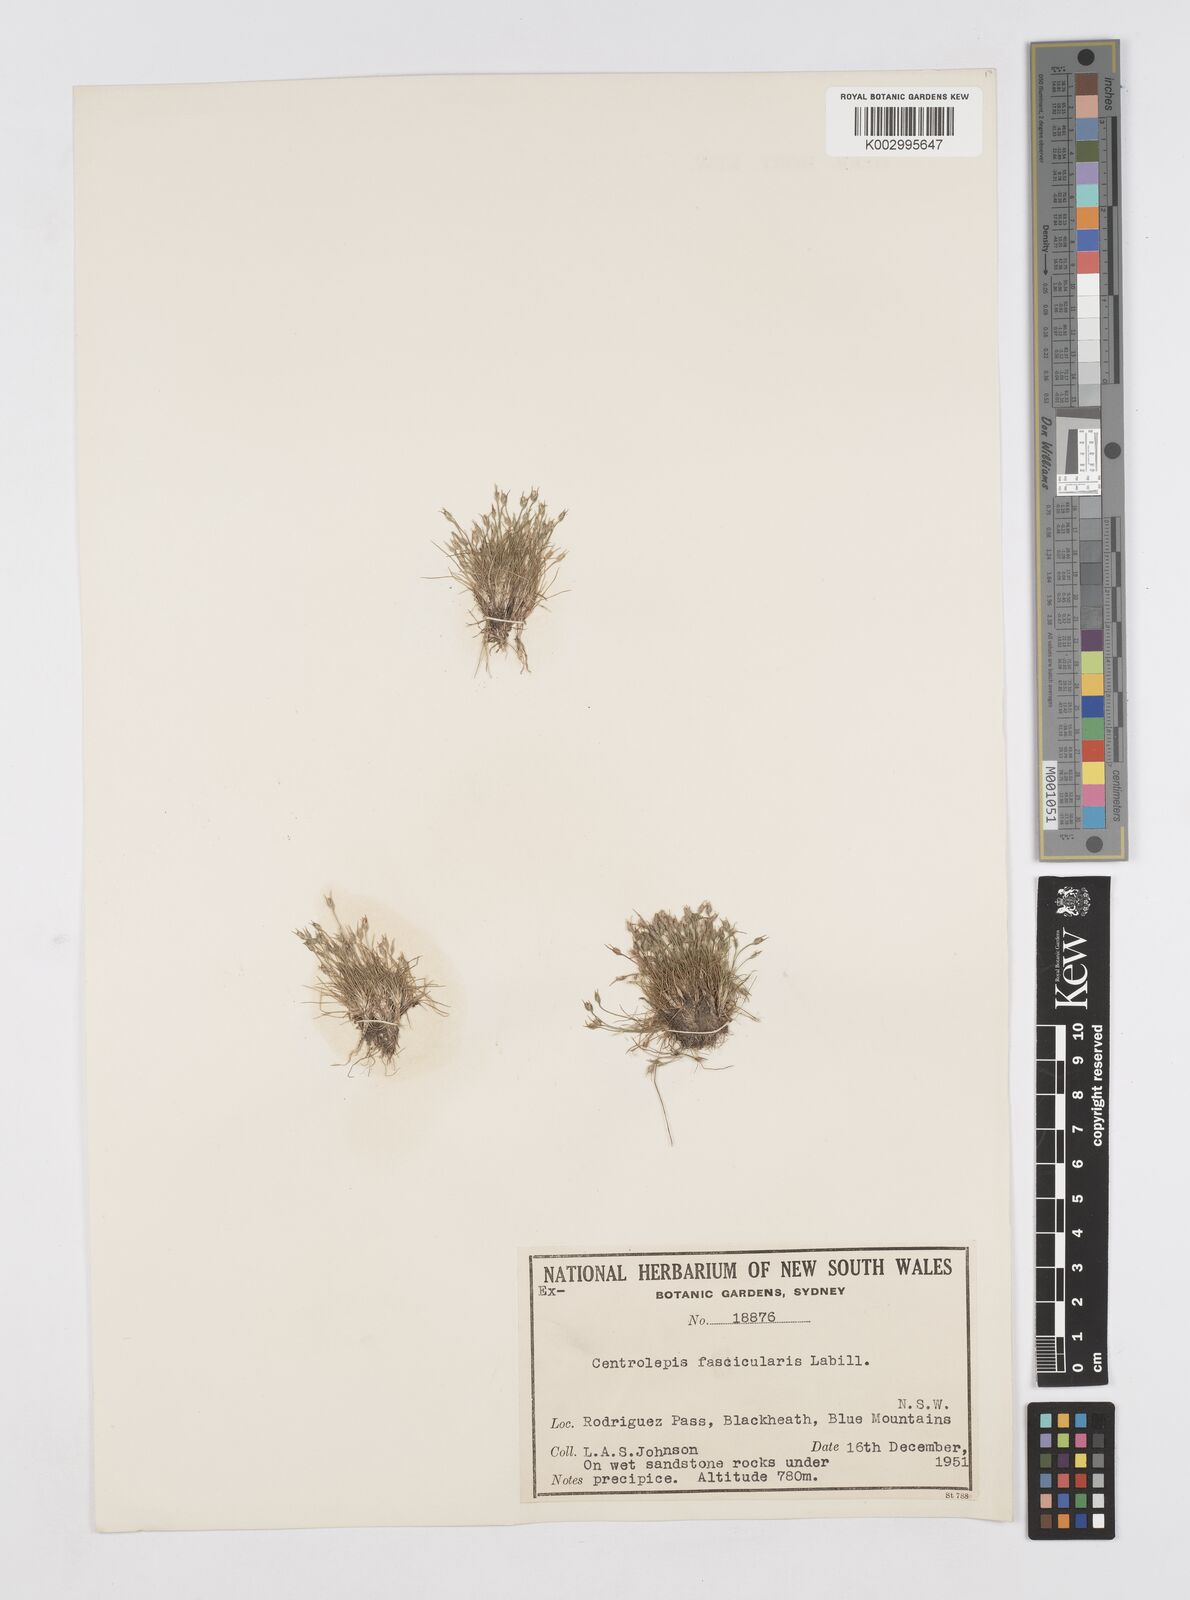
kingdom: Plantae
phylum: Tracheophyta
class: Liliopsida
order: Poales
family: Restionaceae
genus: Centrolepis
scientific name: Centrolepis fascicularis
